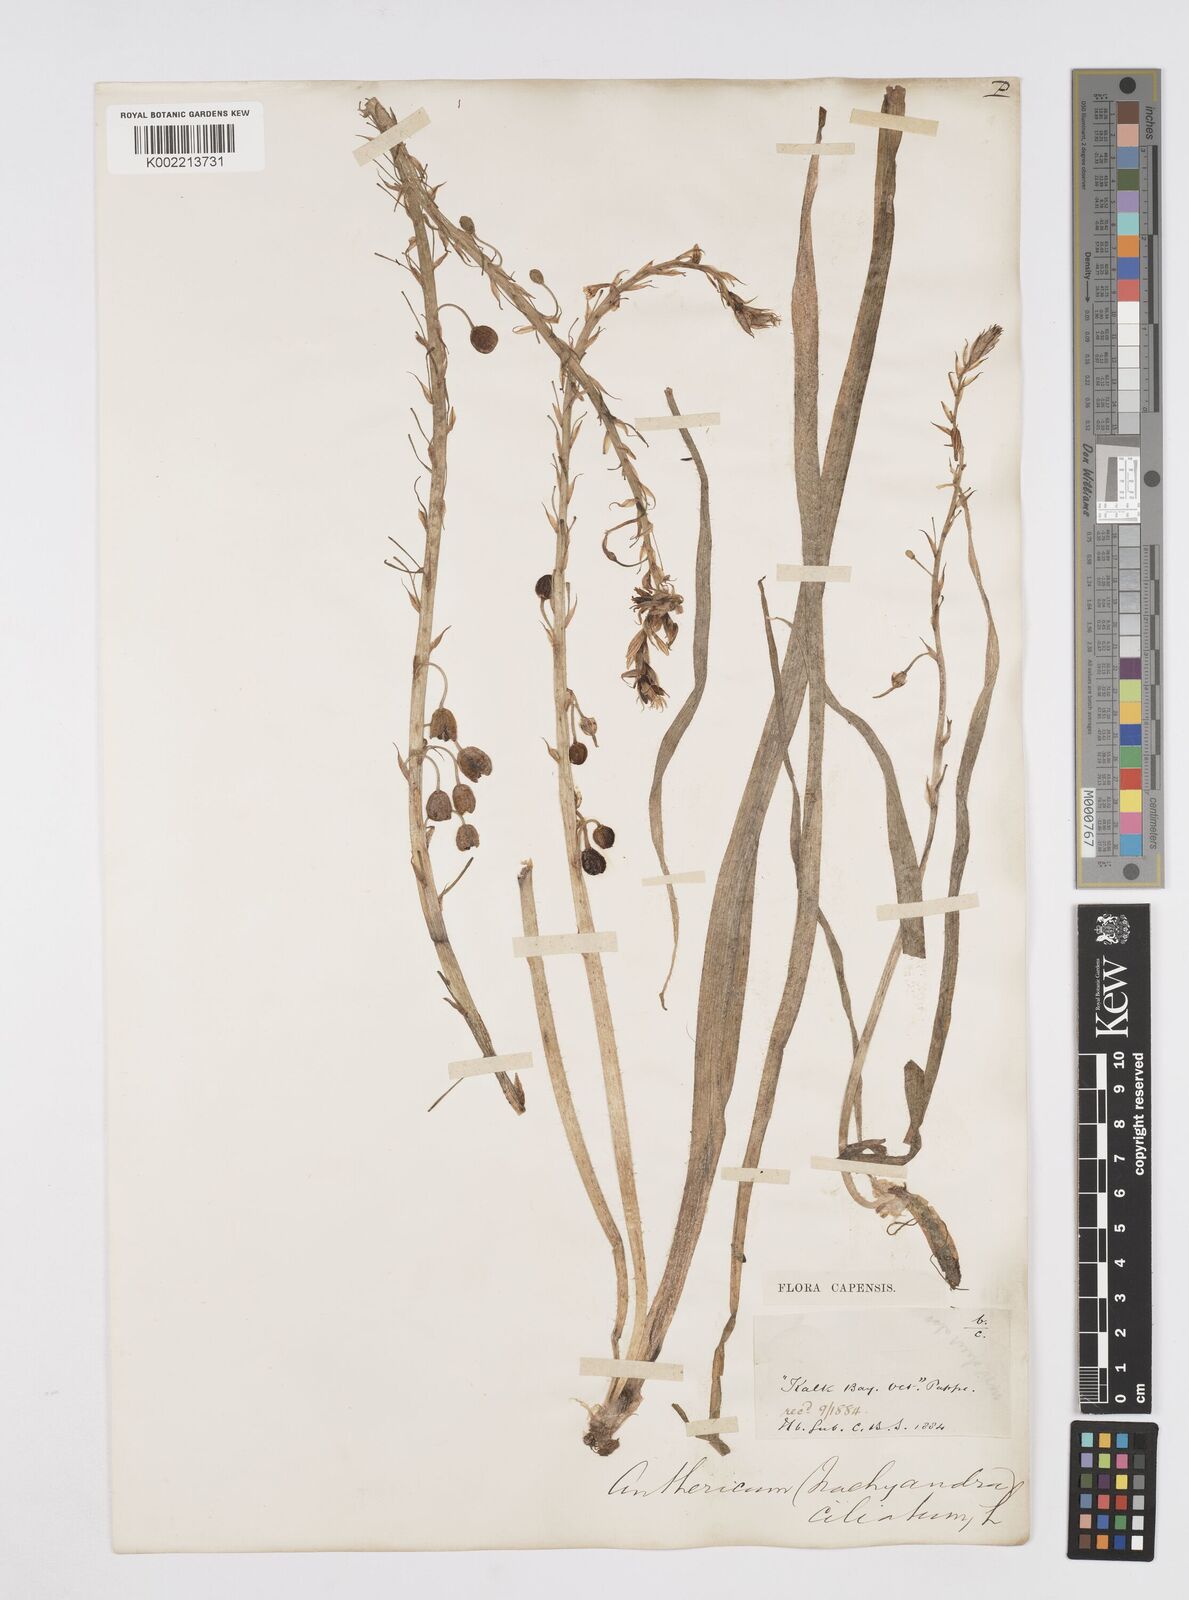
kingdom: Plantae
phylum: Tracheophyta
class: Liliopsida
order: Asparagales
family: Asphodelaceae
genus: Trachyandra
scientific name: Trachyandra ciliata
